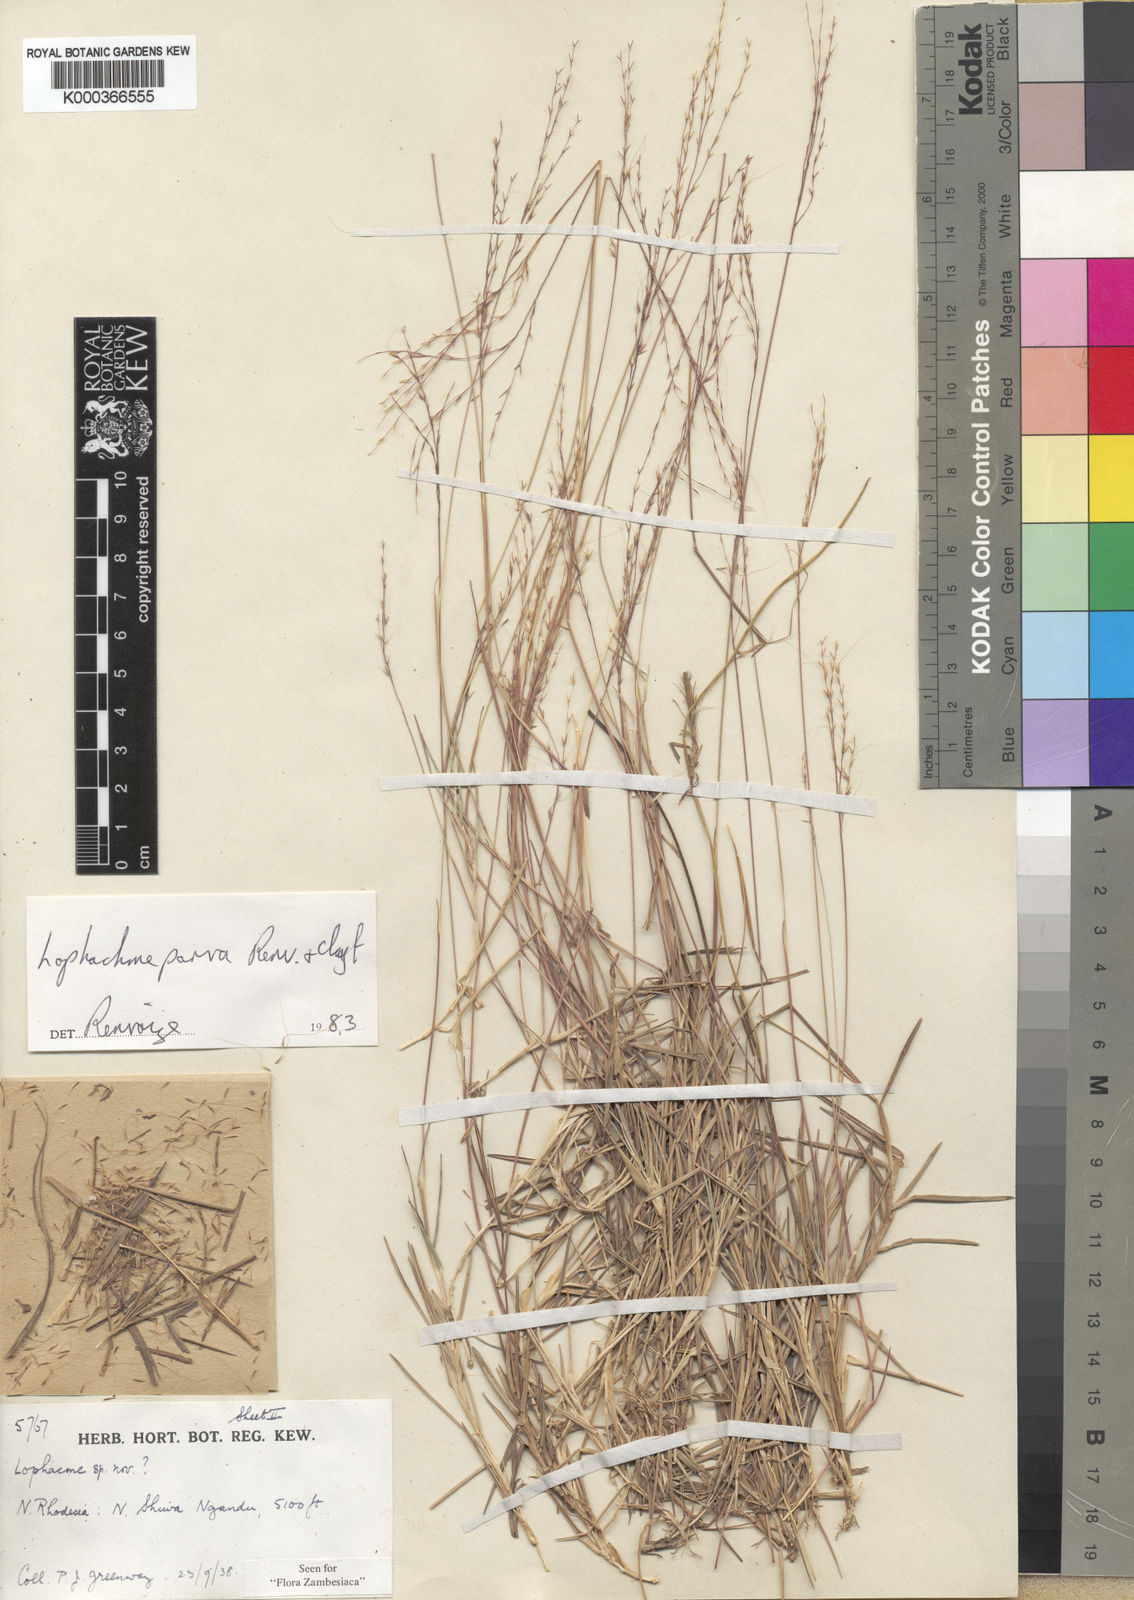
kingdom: Plantae
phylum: Tracheophyta
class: Liliopsida
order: Poales
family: Poaceae
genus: Lophacme
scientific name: Lophacme parva
